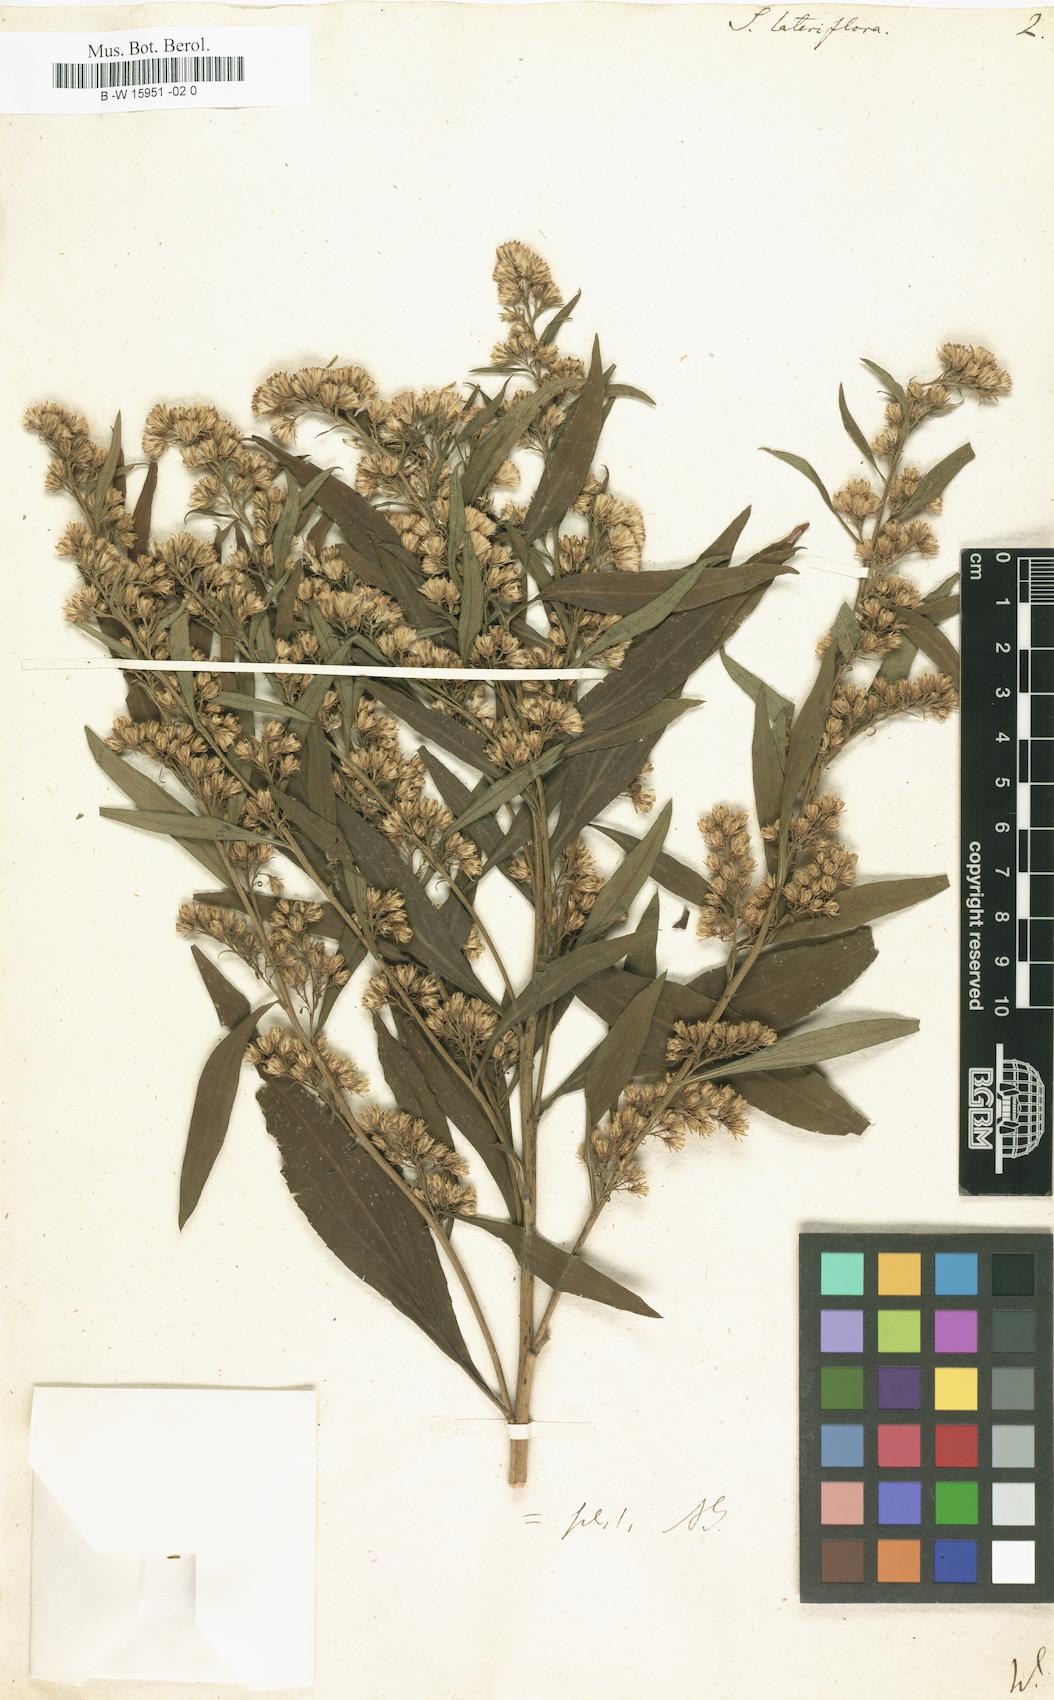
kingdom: Plantae
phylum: Tracheophyta
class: Magnoliopsida
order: Asterales
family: Asteraceae
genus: Symphyotrichum
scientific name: Symphyotrichum lateriflorum
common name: Calico aster
